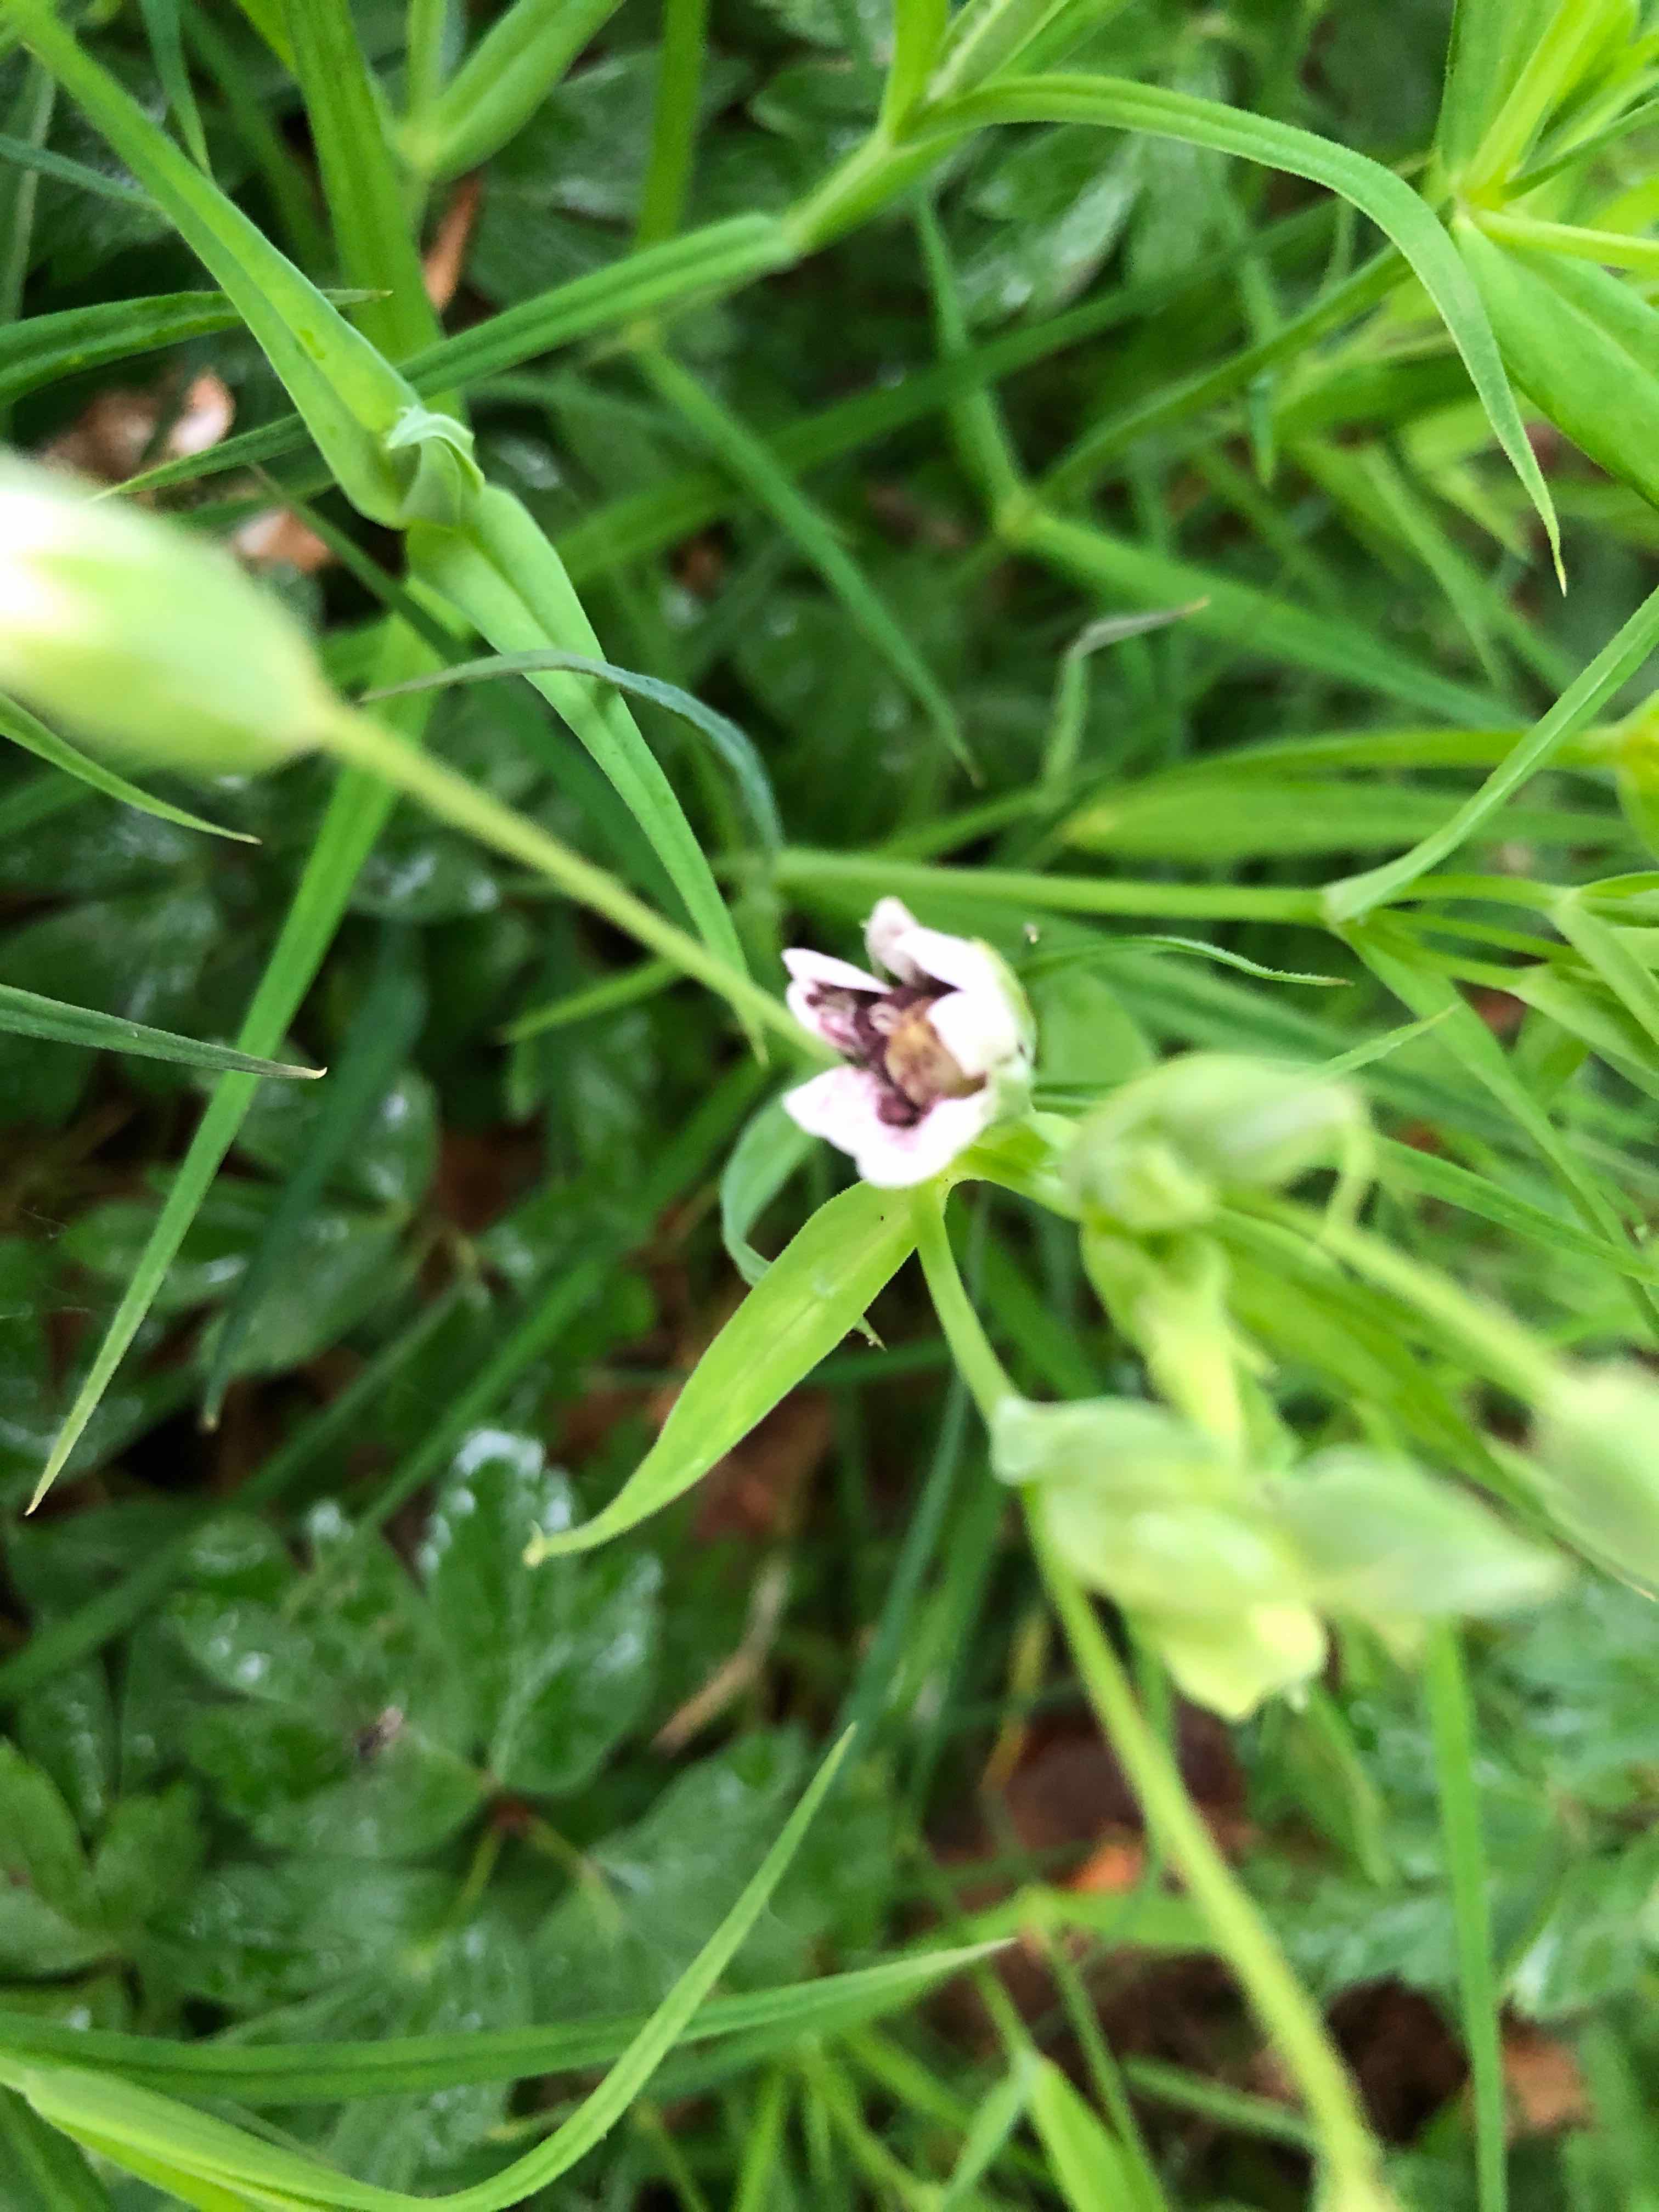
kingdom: Fungi
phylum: Basidiomycota
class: Microbotryomycetes
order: Microbotryales
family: Microbotryaceae
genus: Microbotryum
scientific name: Microbotryum stellariae
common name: fladstjerne-støvbladrust
